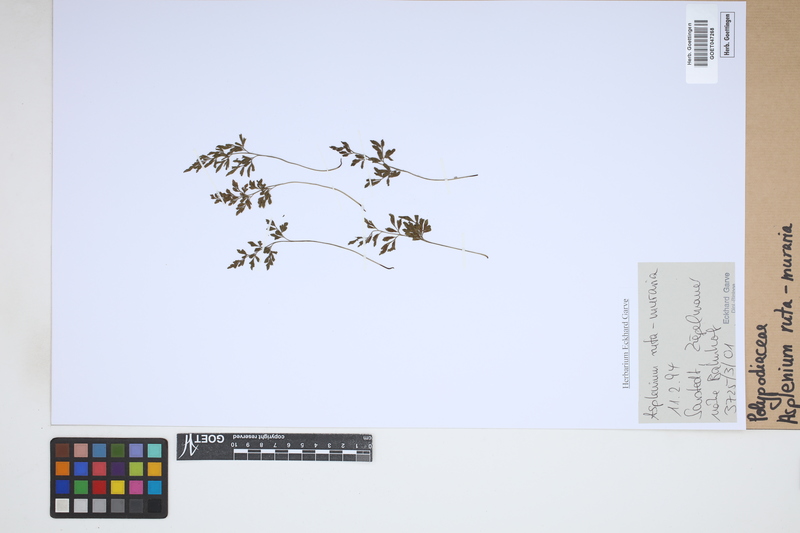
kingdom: Plantae
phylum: Tracheophyta
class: Polypodiopsida
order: Polypodiales
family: Aspleniaceae
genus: Asplenium
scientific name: Asplenium ruta-muraria
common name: Wall-rue
